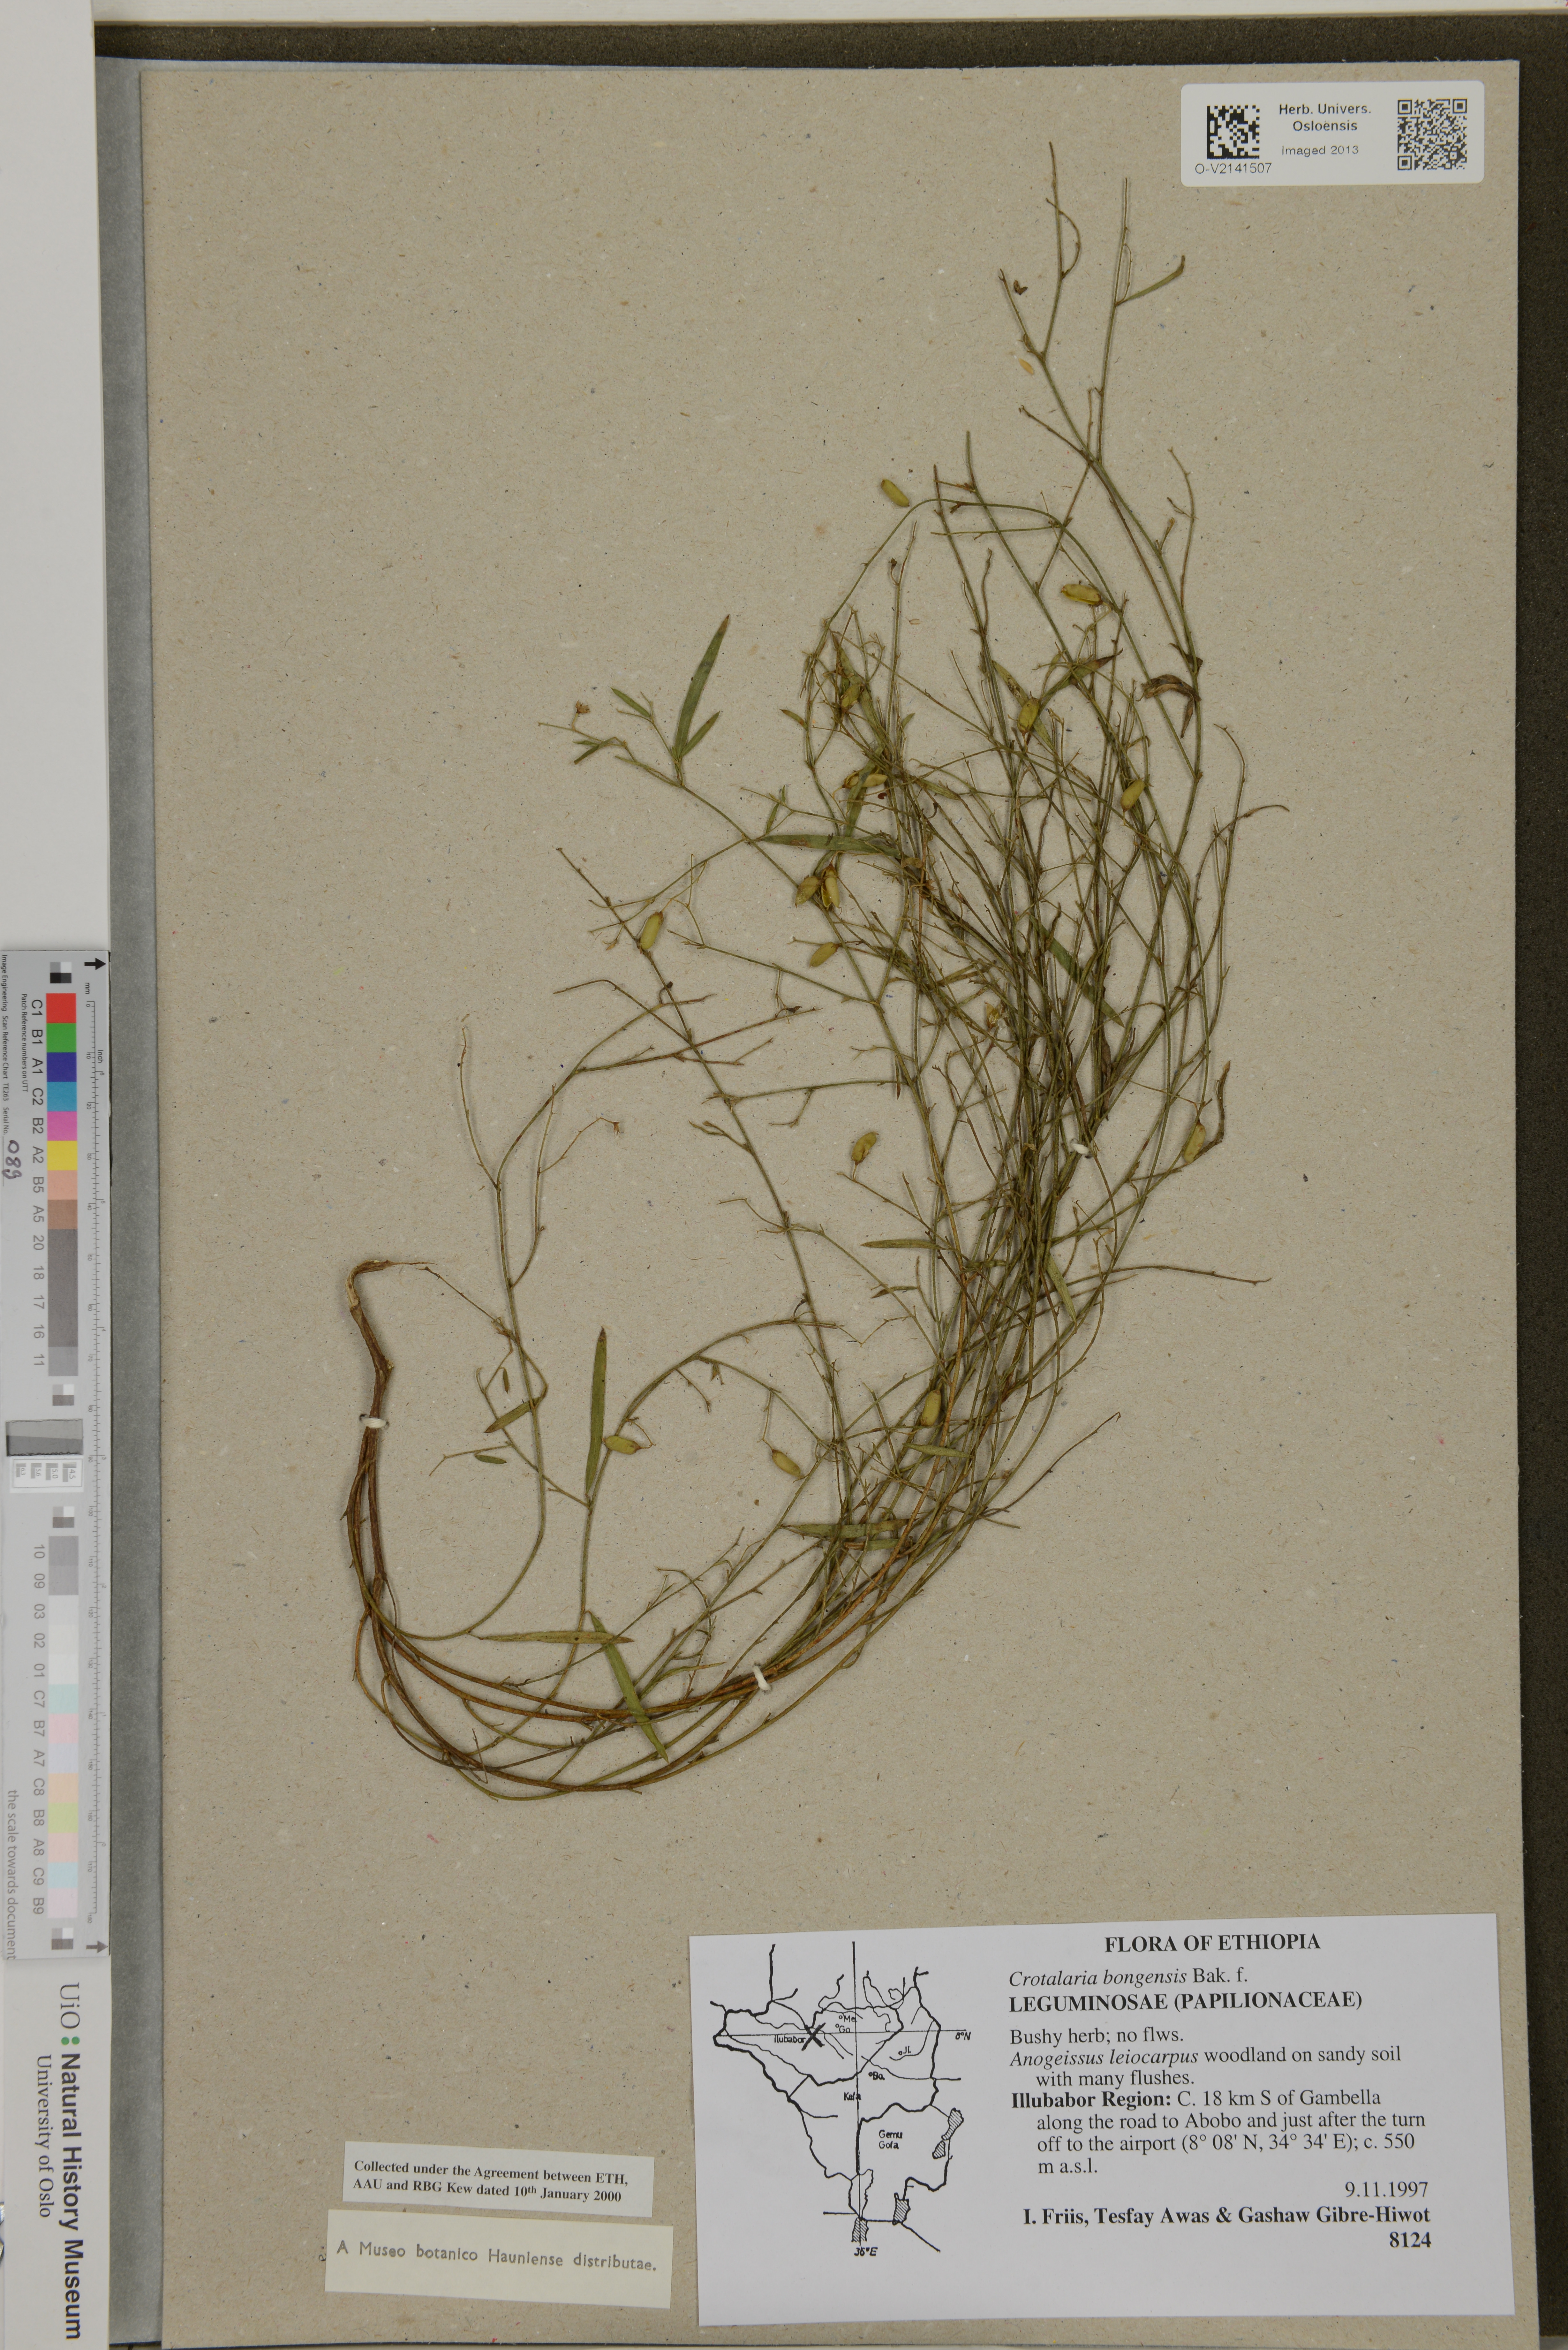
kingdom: Plantae
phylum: Tracheophyta
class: Magnoliopsida
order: Fabales
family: Fabaceae
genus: Crotalaria
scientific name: Crotalaria bongensis
